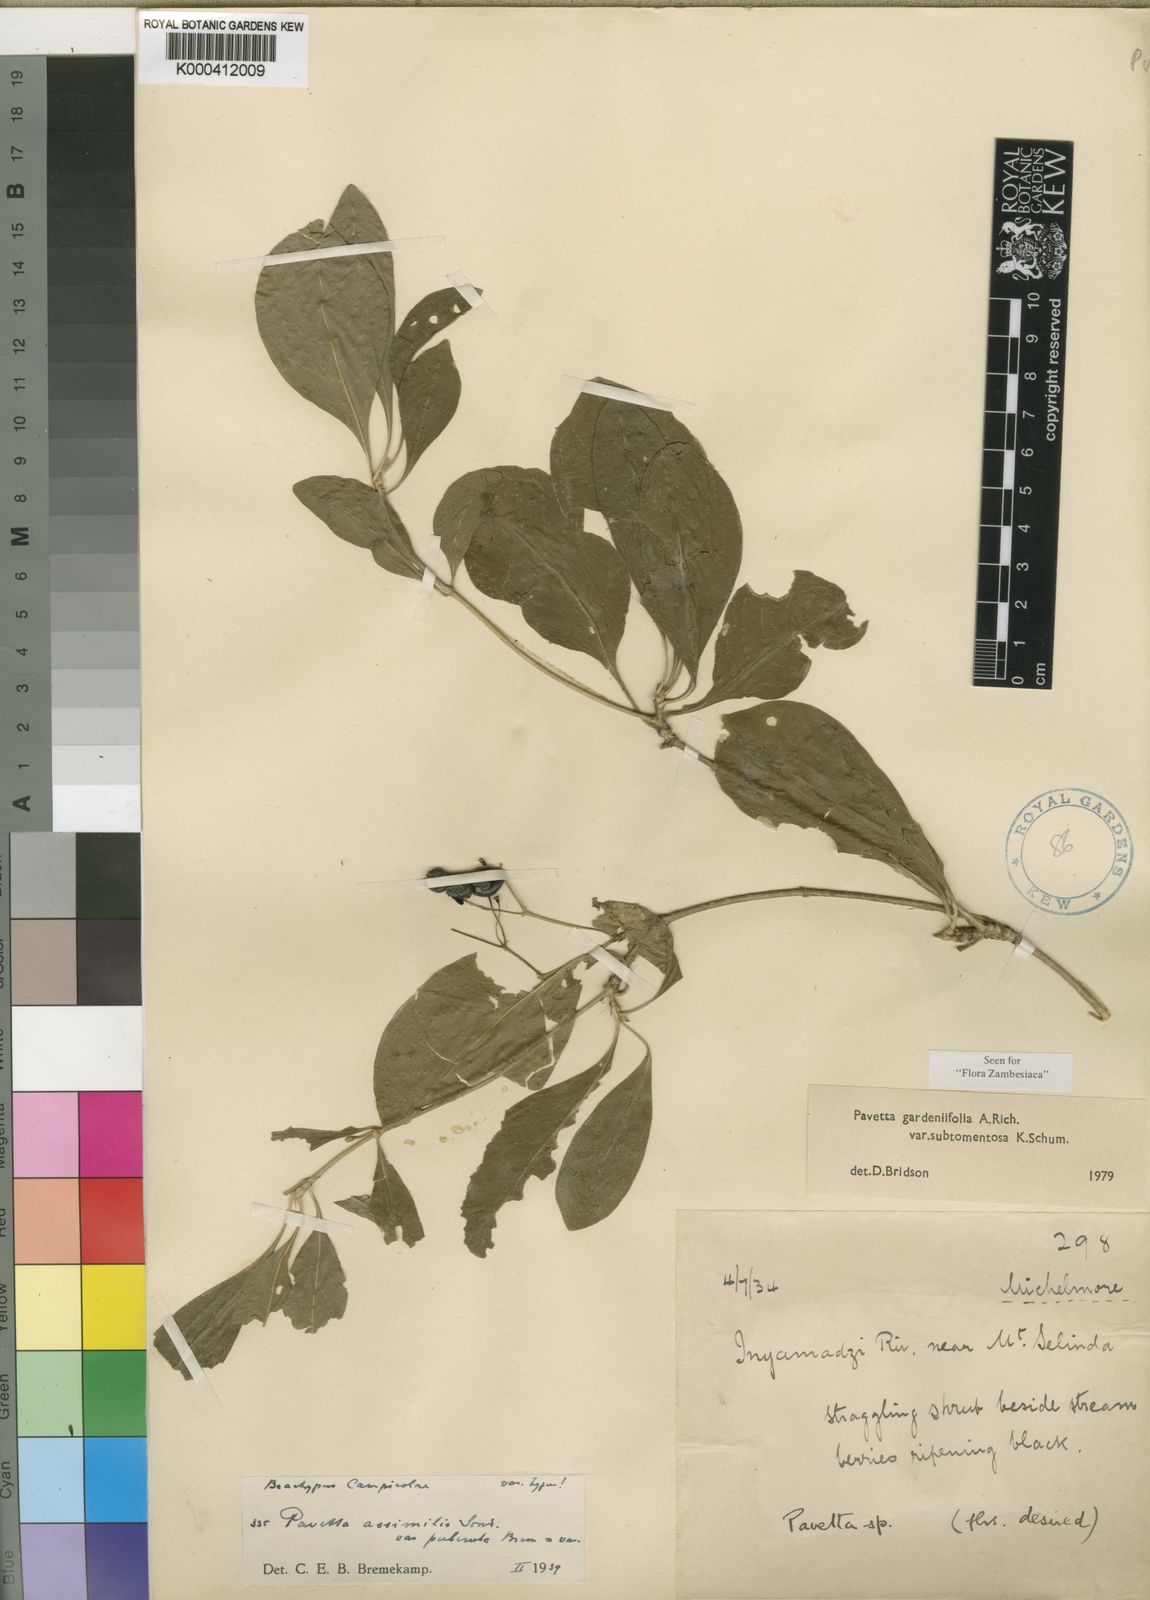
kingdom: Plantae
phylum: Tracheophyta
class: Magnoliopsida
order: Gentianales
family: Rubiaceae
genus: Pavetta
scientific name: Pavetta gardeniifolia
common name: Common brides-bush
